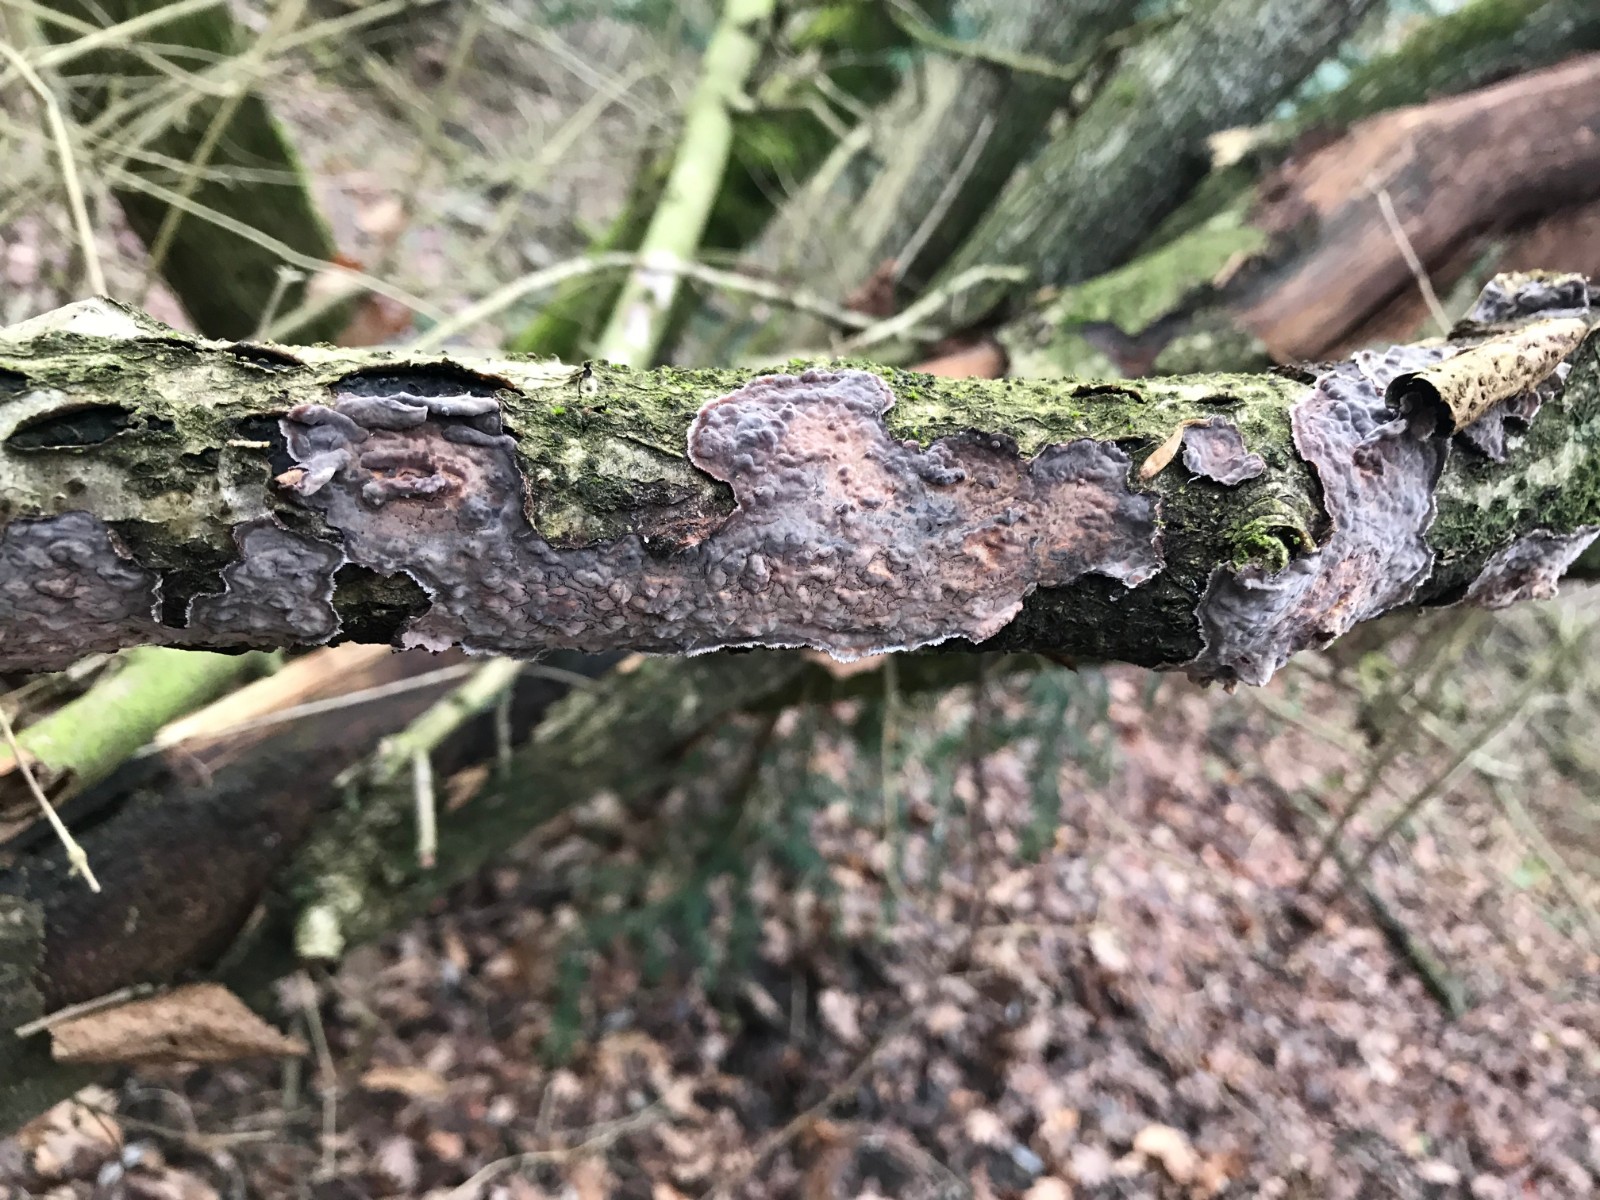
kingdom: Fungi
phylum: Basidiomycota
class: Agaricomycetes
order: Russulales
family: Peniophoraceae
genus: Peniophora
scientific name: Peniophora quercina
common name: ege-voksskind
